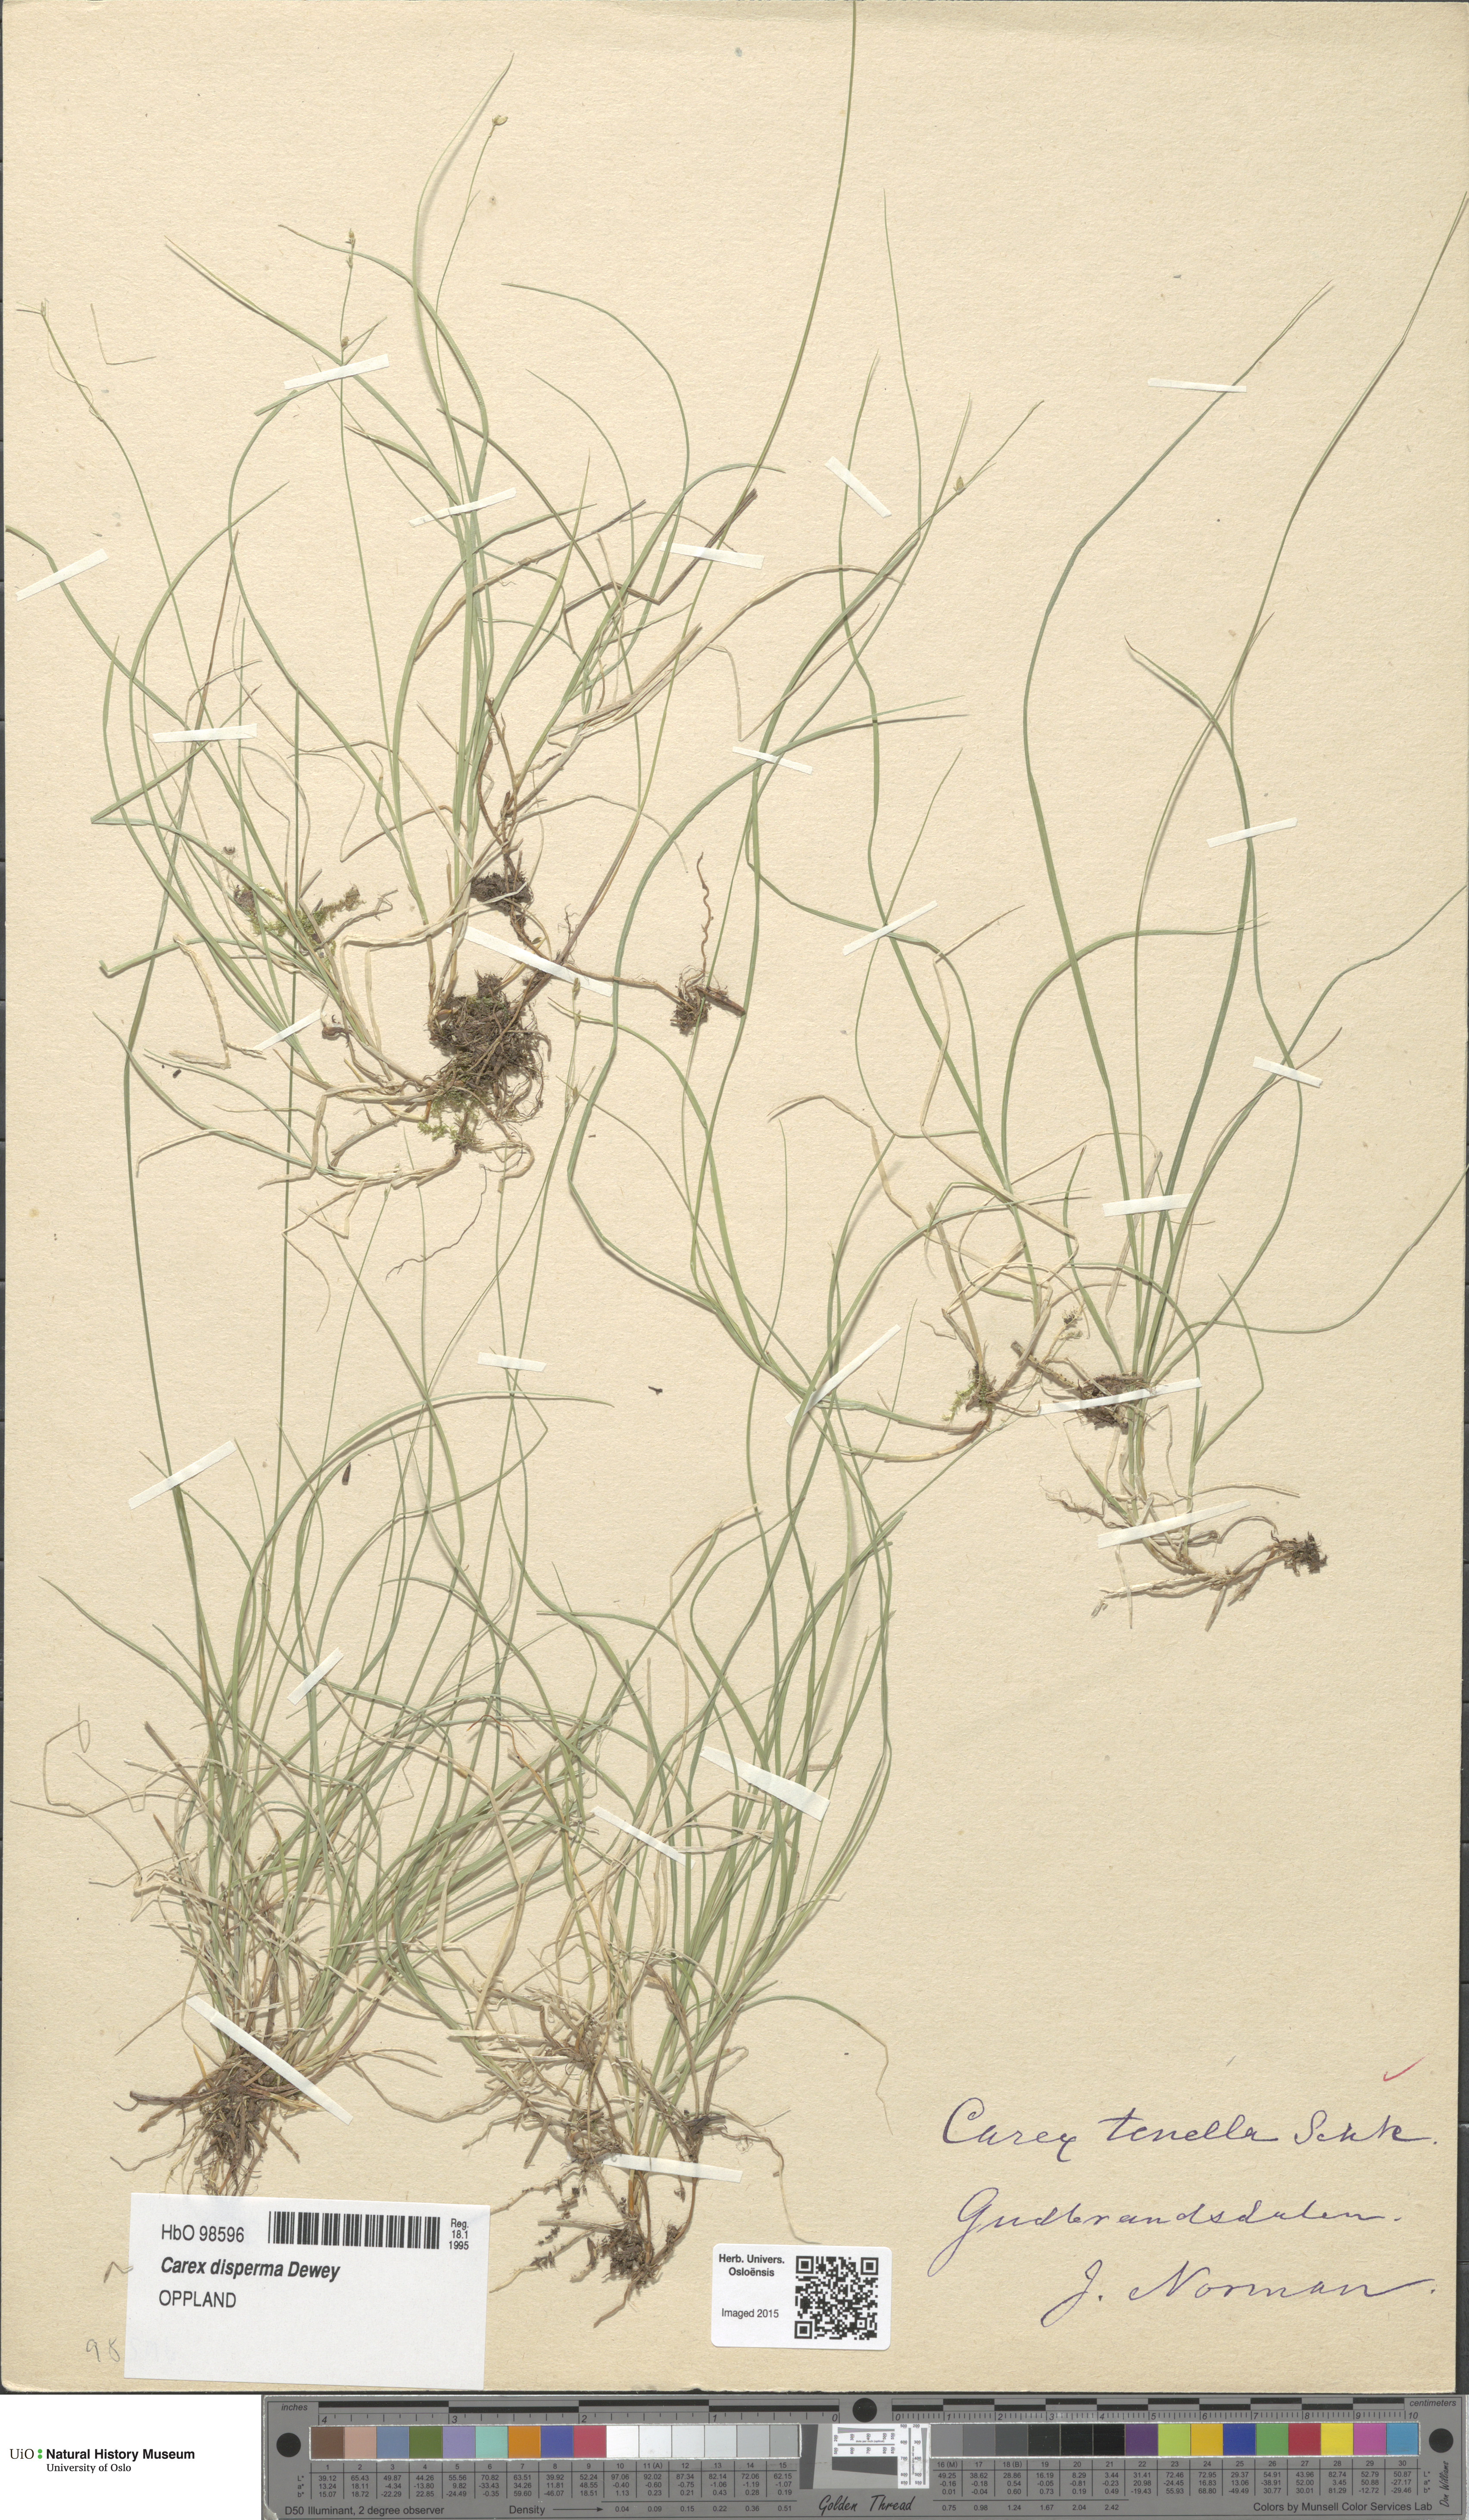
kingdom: Plantae
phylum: Tracheophyta
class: Liliopsida
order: Poales
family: Cyperaceae
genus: Carex
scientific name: Carex disperma
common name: Short-leaved sedge
